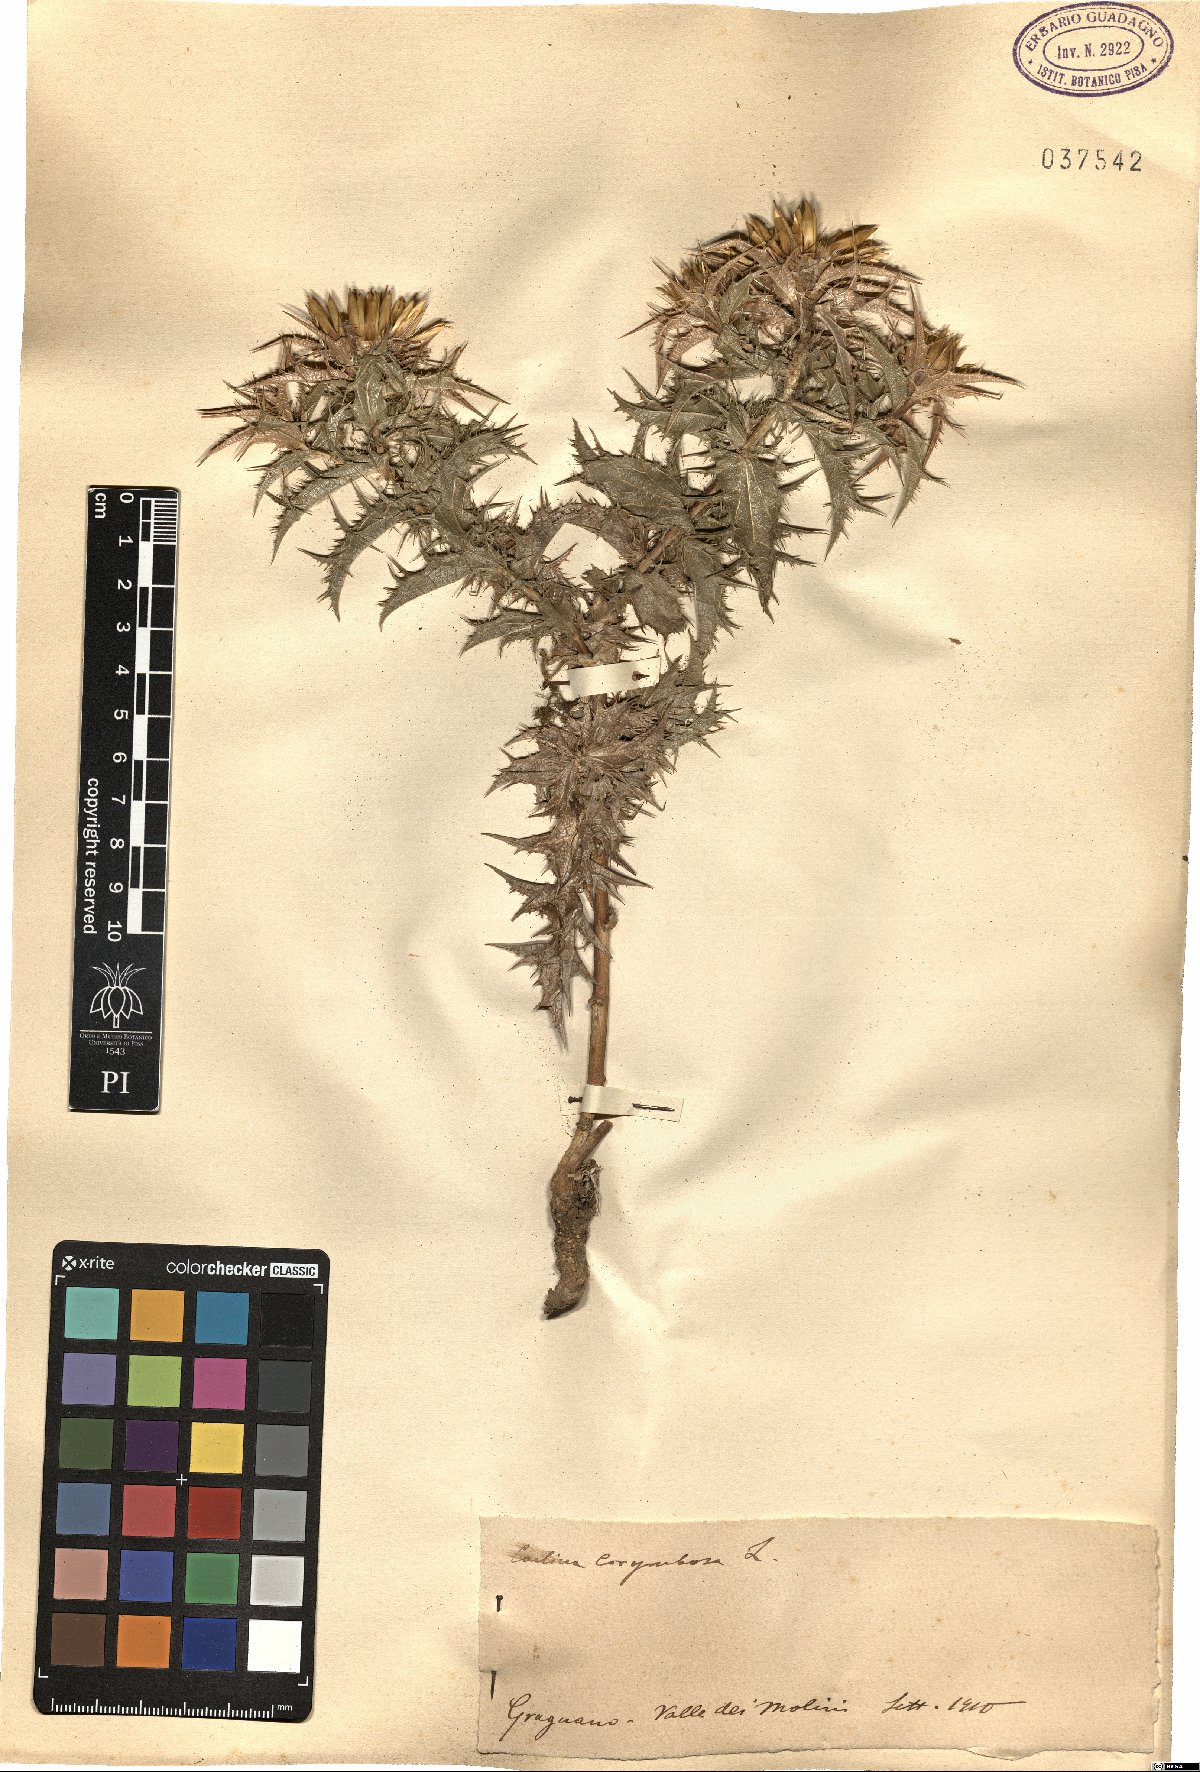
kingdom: Plantae
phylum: Tracheophyta
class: Magnoliopsida
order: Asterales
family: Asteraceae
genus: Carlina
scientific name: Carlina corymbosa
